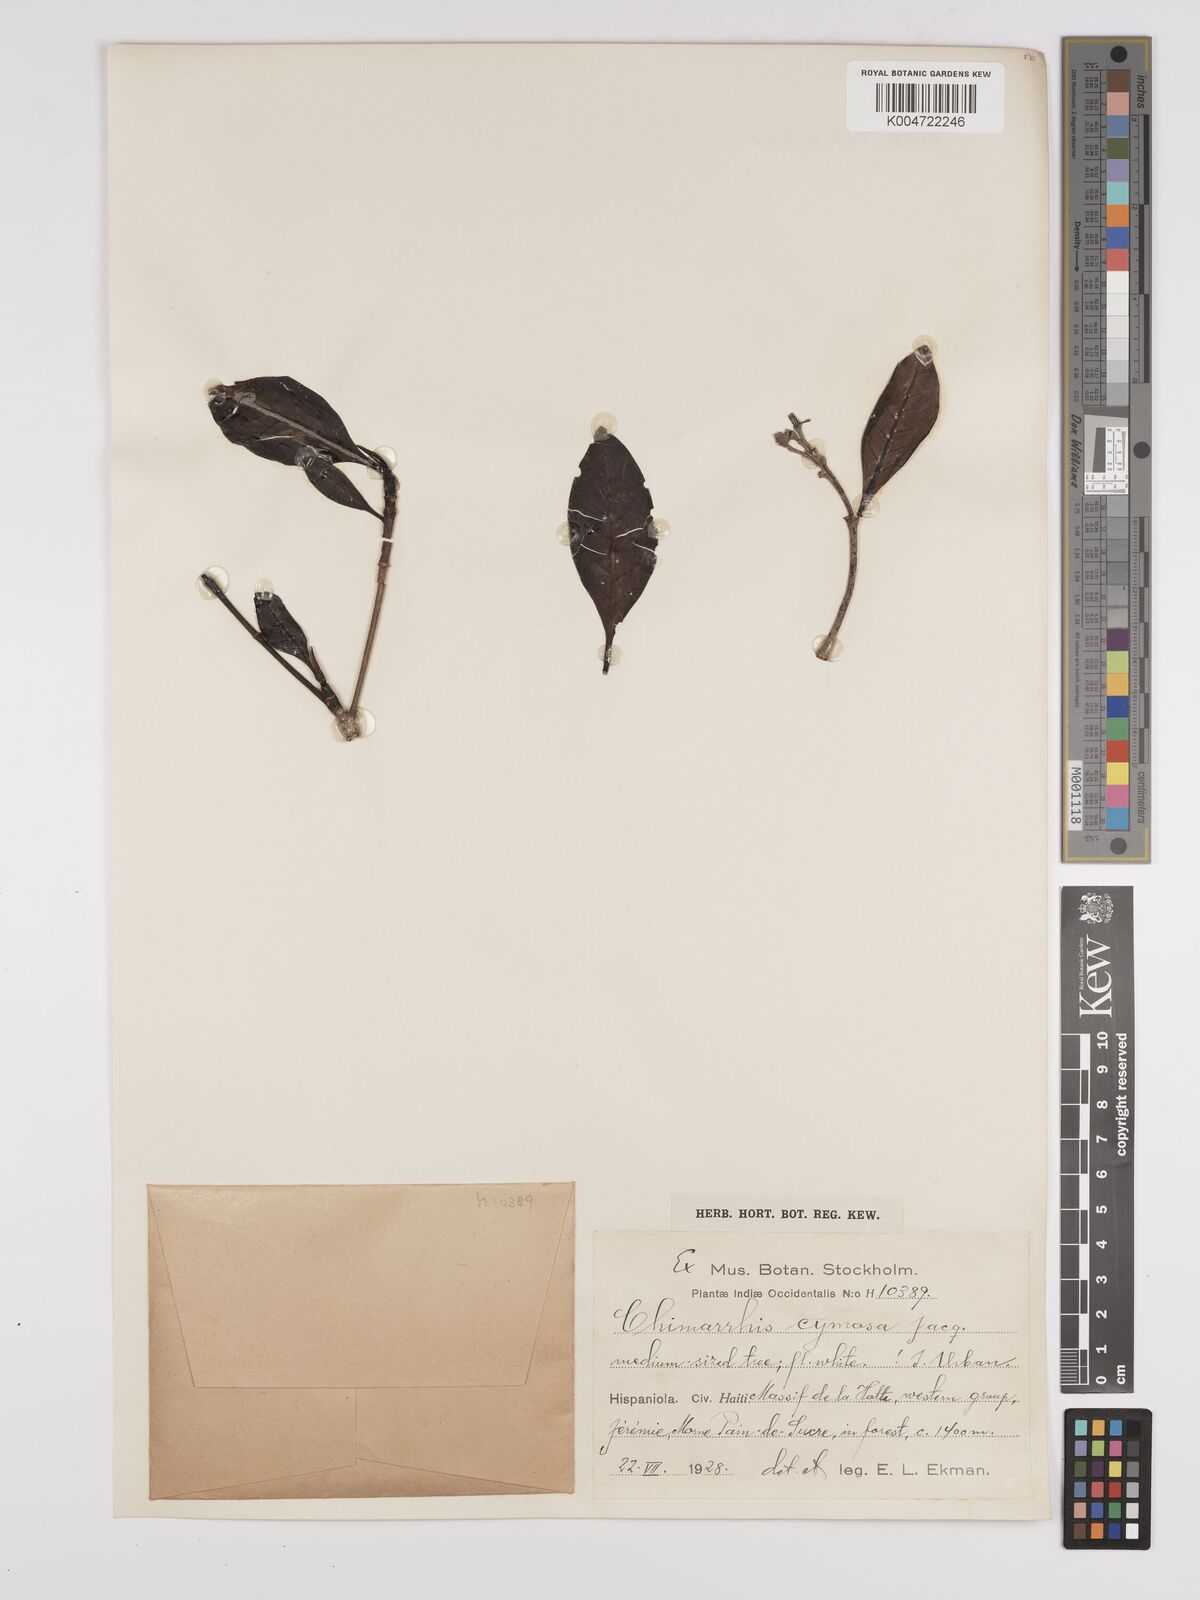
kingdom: Plantae
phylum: Tracheophyta
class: Magnoliopsida
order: Gentianales
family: Rubiaceae
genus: Chimarrhis
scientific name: Chimarrhis cymosa
